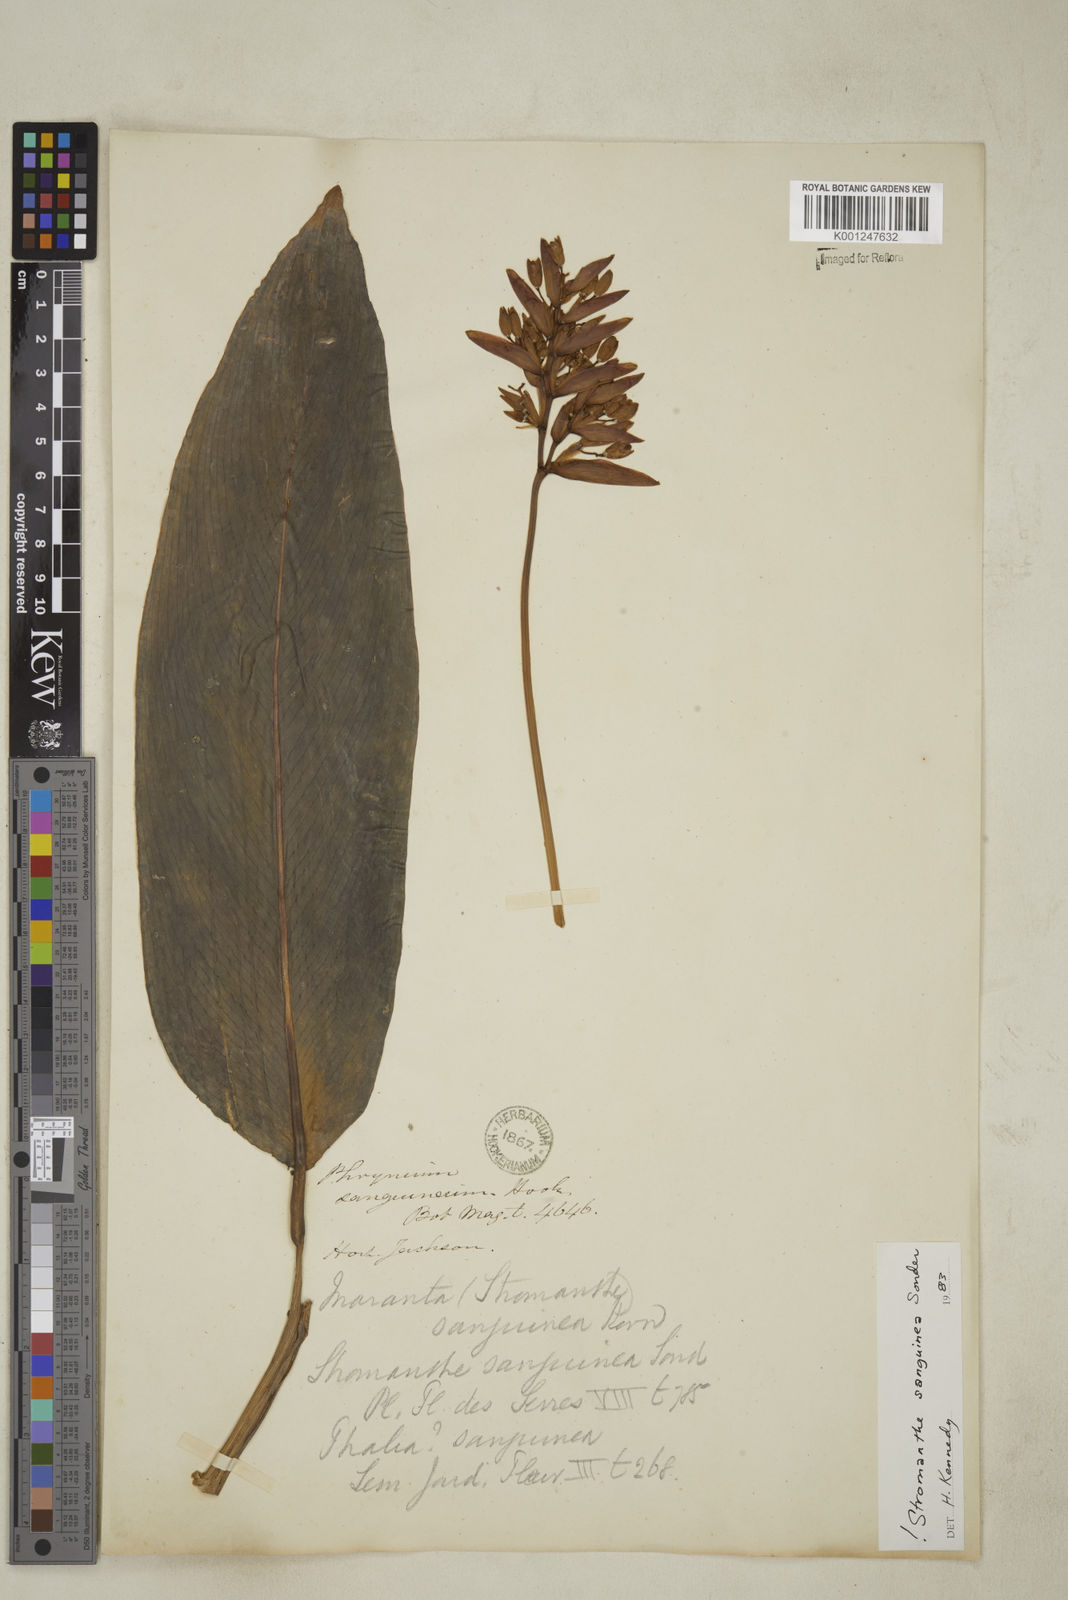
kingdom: Plantae
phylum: Tracheophyta
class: Liliopsida
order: Zingiberales
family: Marantaceae
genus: Stromanthe
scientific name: Stromanthe thalia
